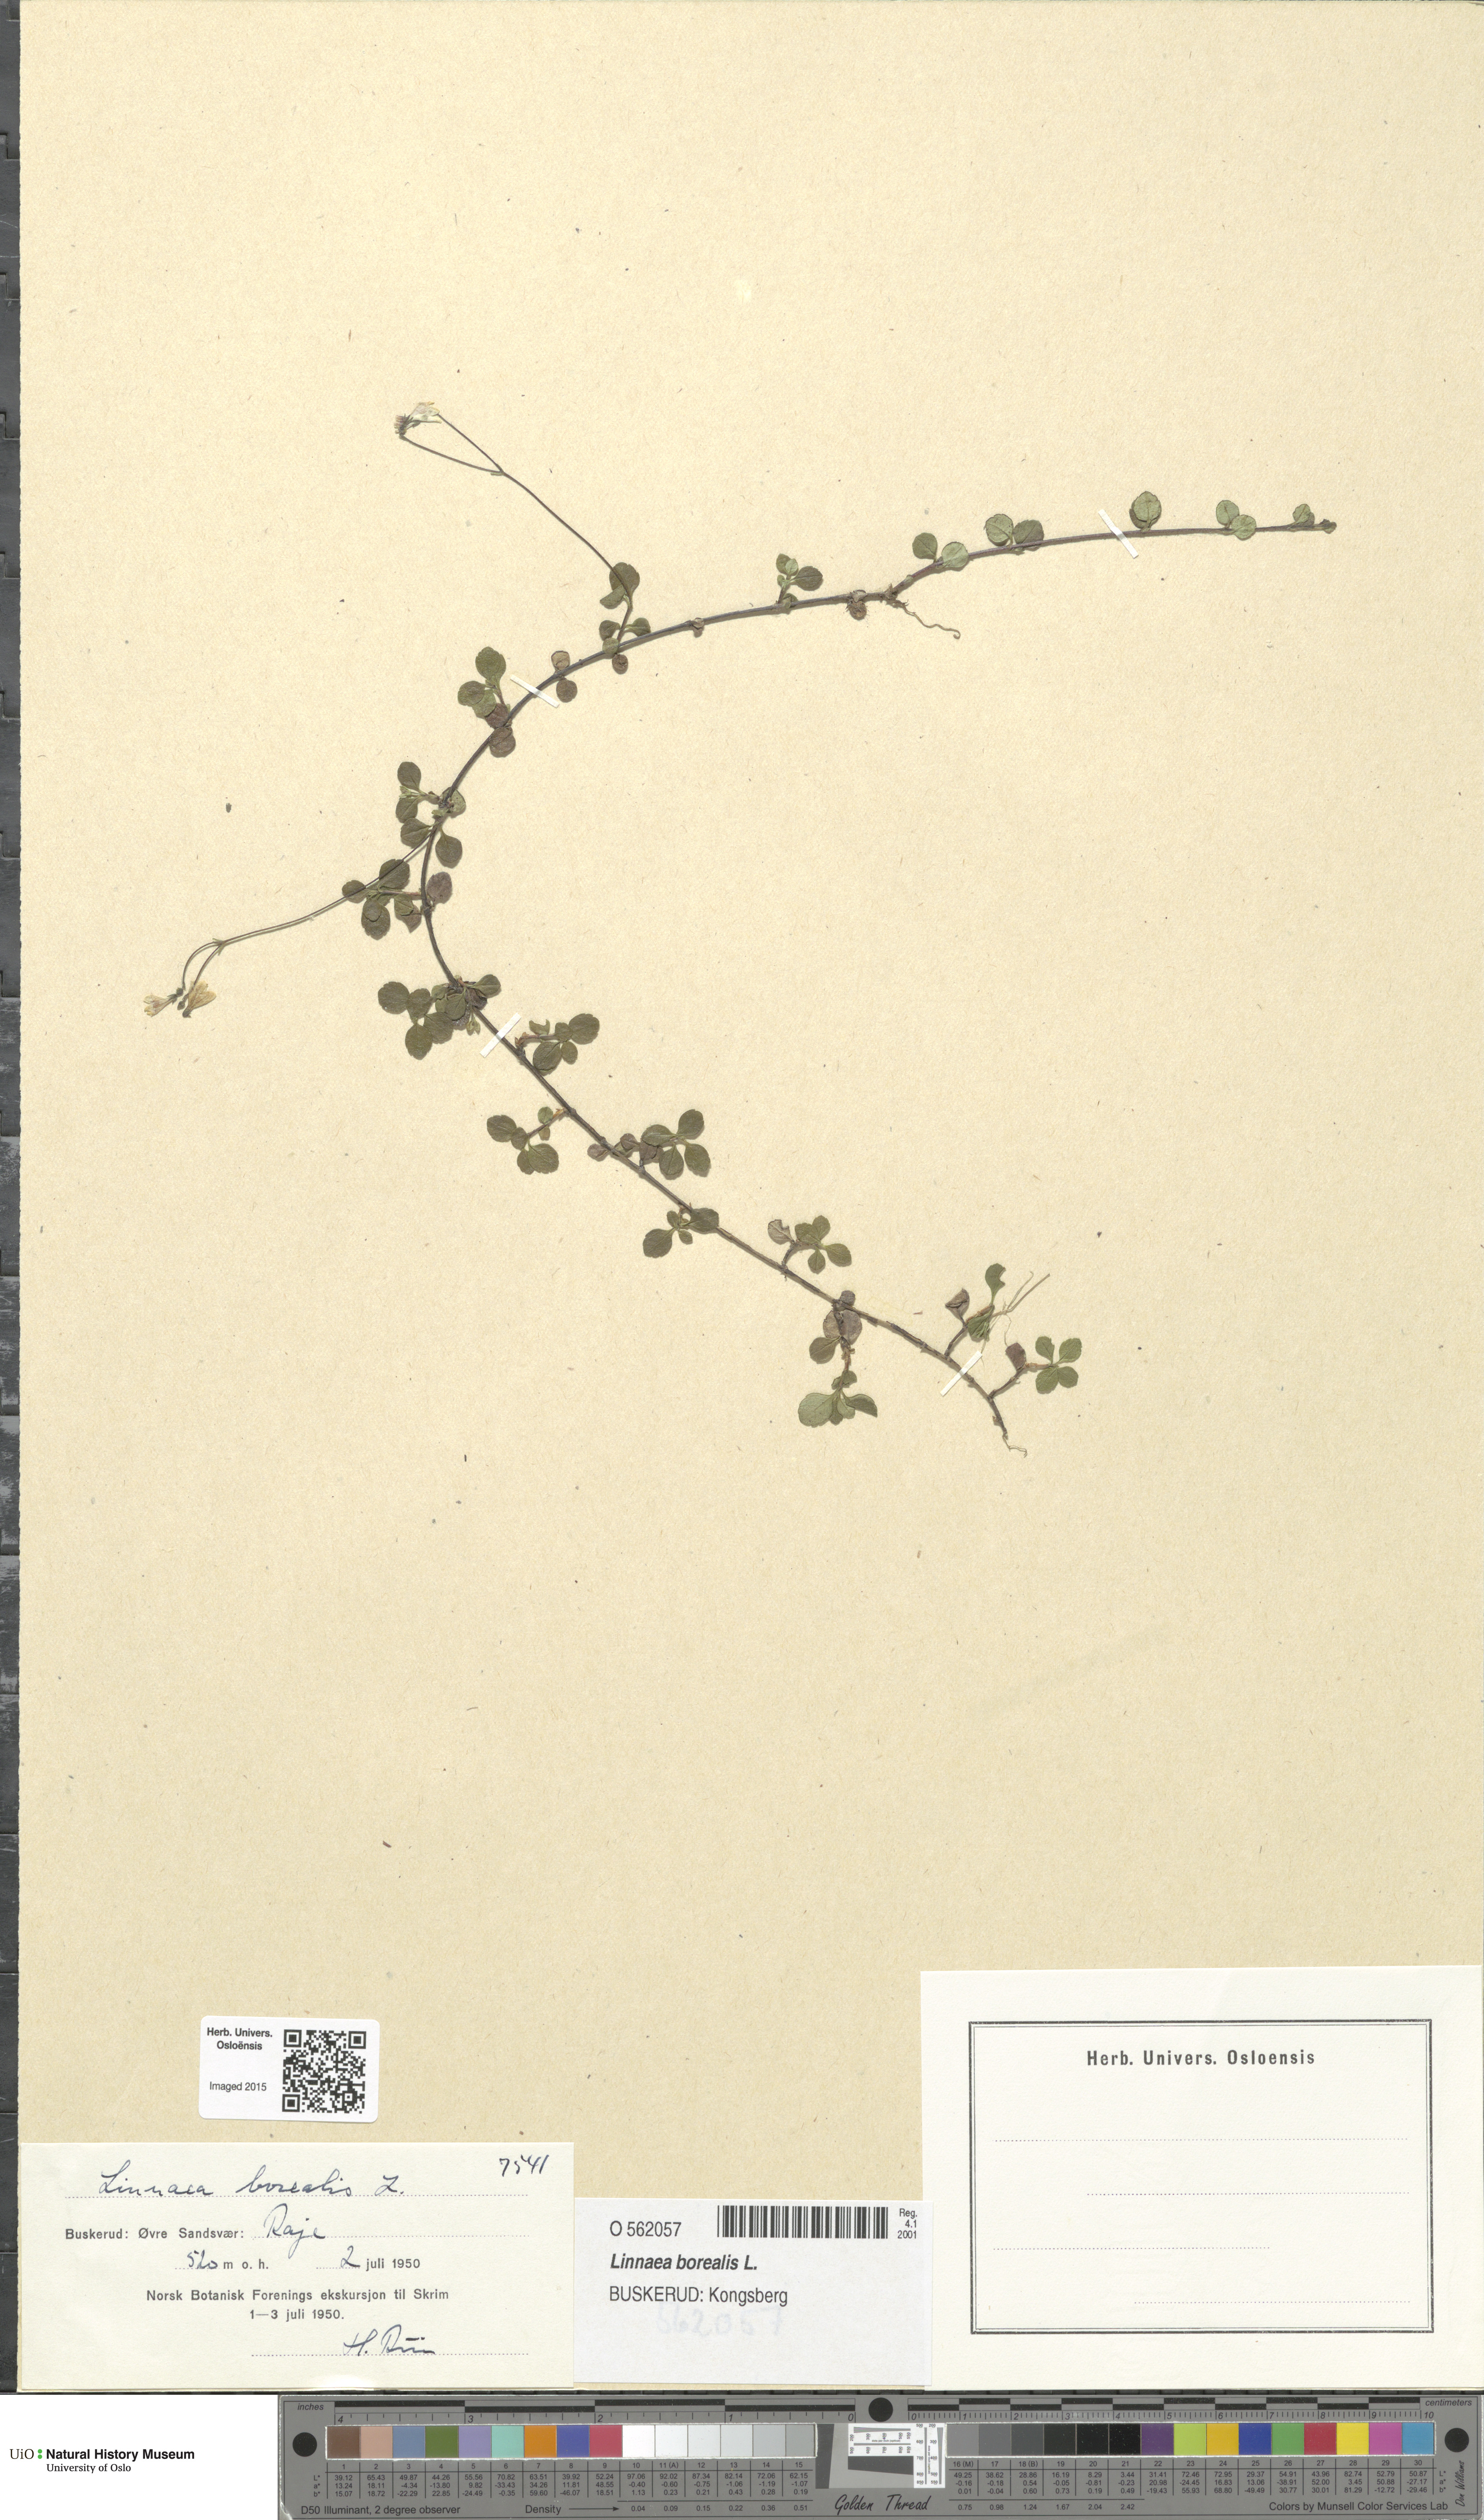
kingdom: Plantae
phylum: Tracheophyta
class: Magnoliopsida
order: Dipsacales
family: Caprifoliaceae
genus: Linnaea
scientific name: Linnaea borealis
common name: Twinflower
